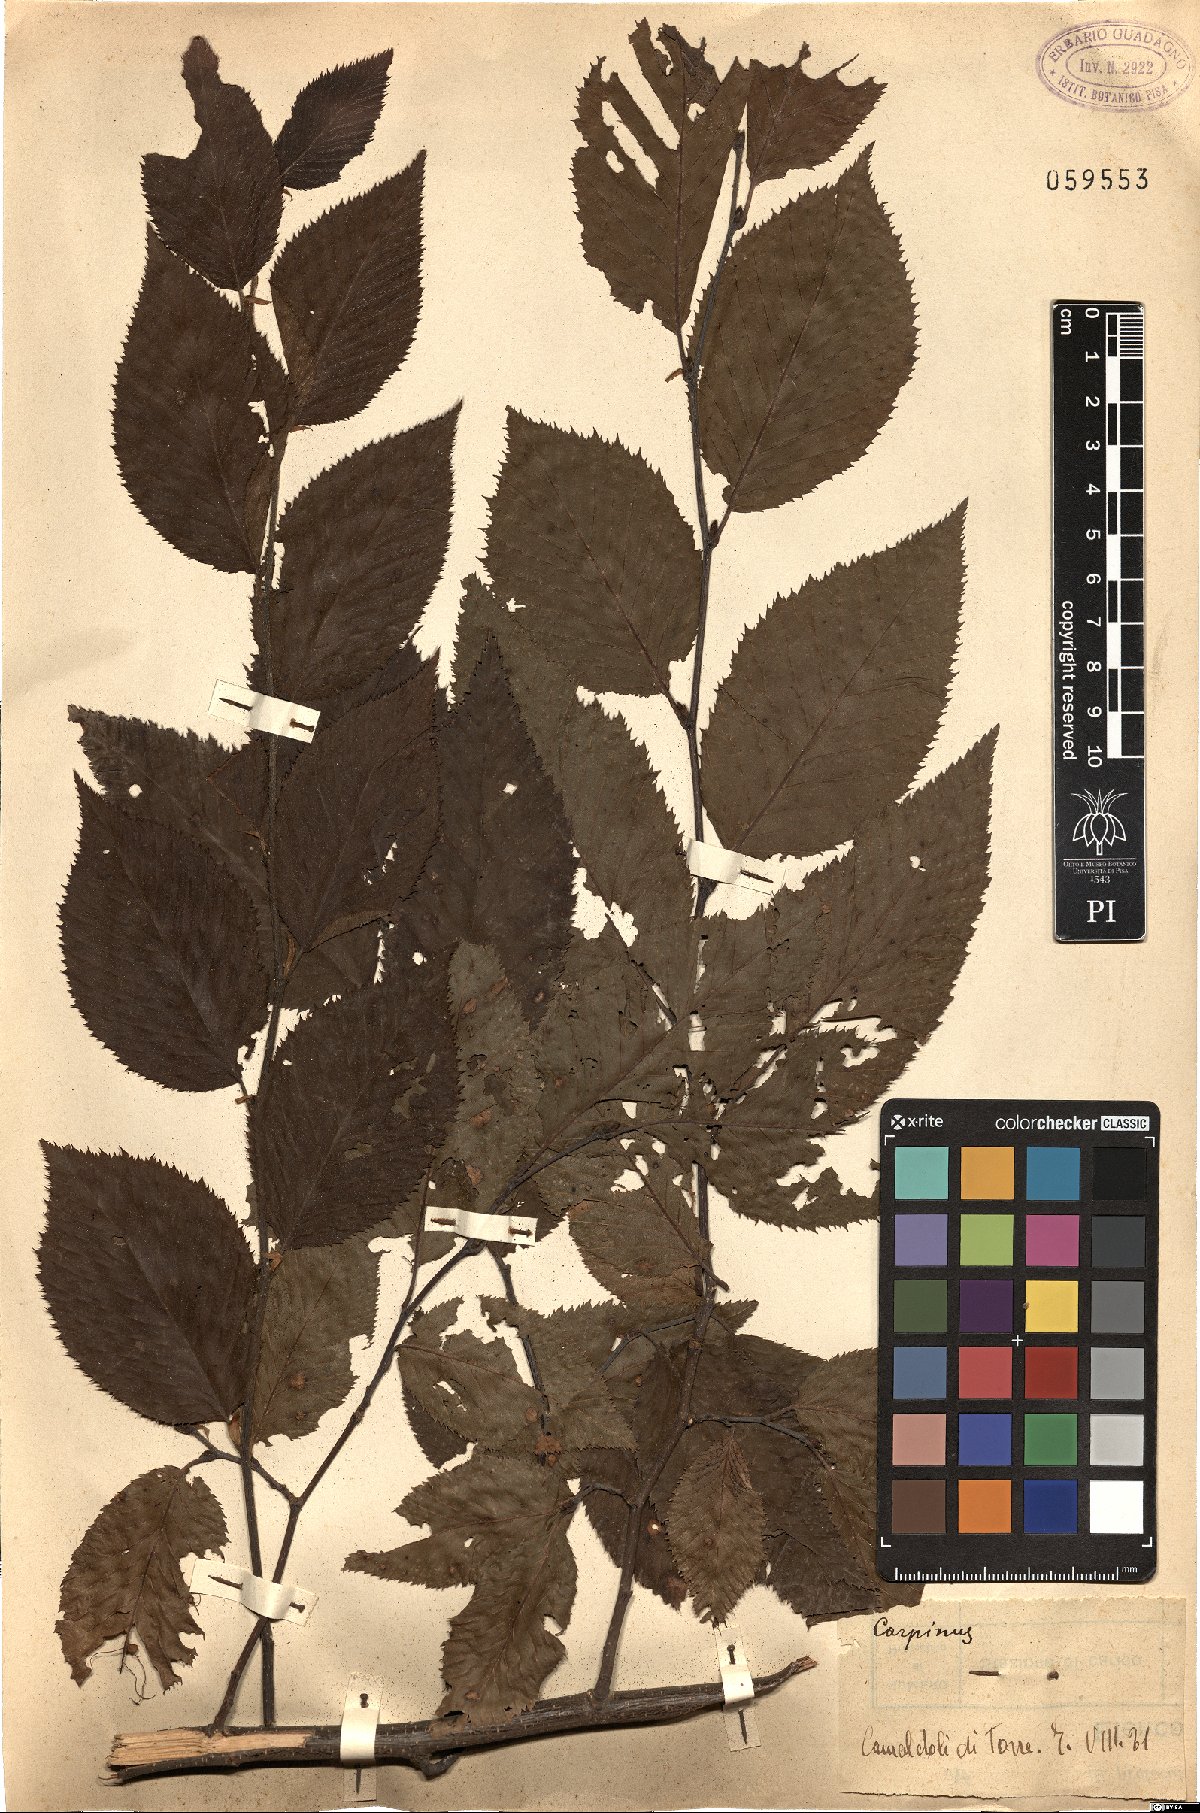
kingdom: Plantae
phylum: Tracheophyta
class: Magnoliopsida
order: Fagales
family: Betulaceae
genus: Carpinus
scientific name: Carpinus
